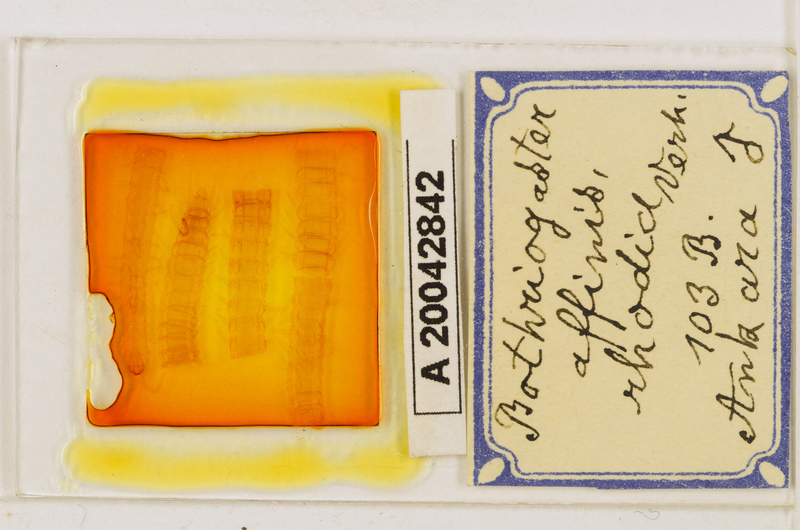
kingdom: Animalia
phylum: Arthropoda
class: Chilopoda
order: Geophilomorpha
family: Himantariidae
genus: Bothriogaster
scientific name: Bothriogaster signata
